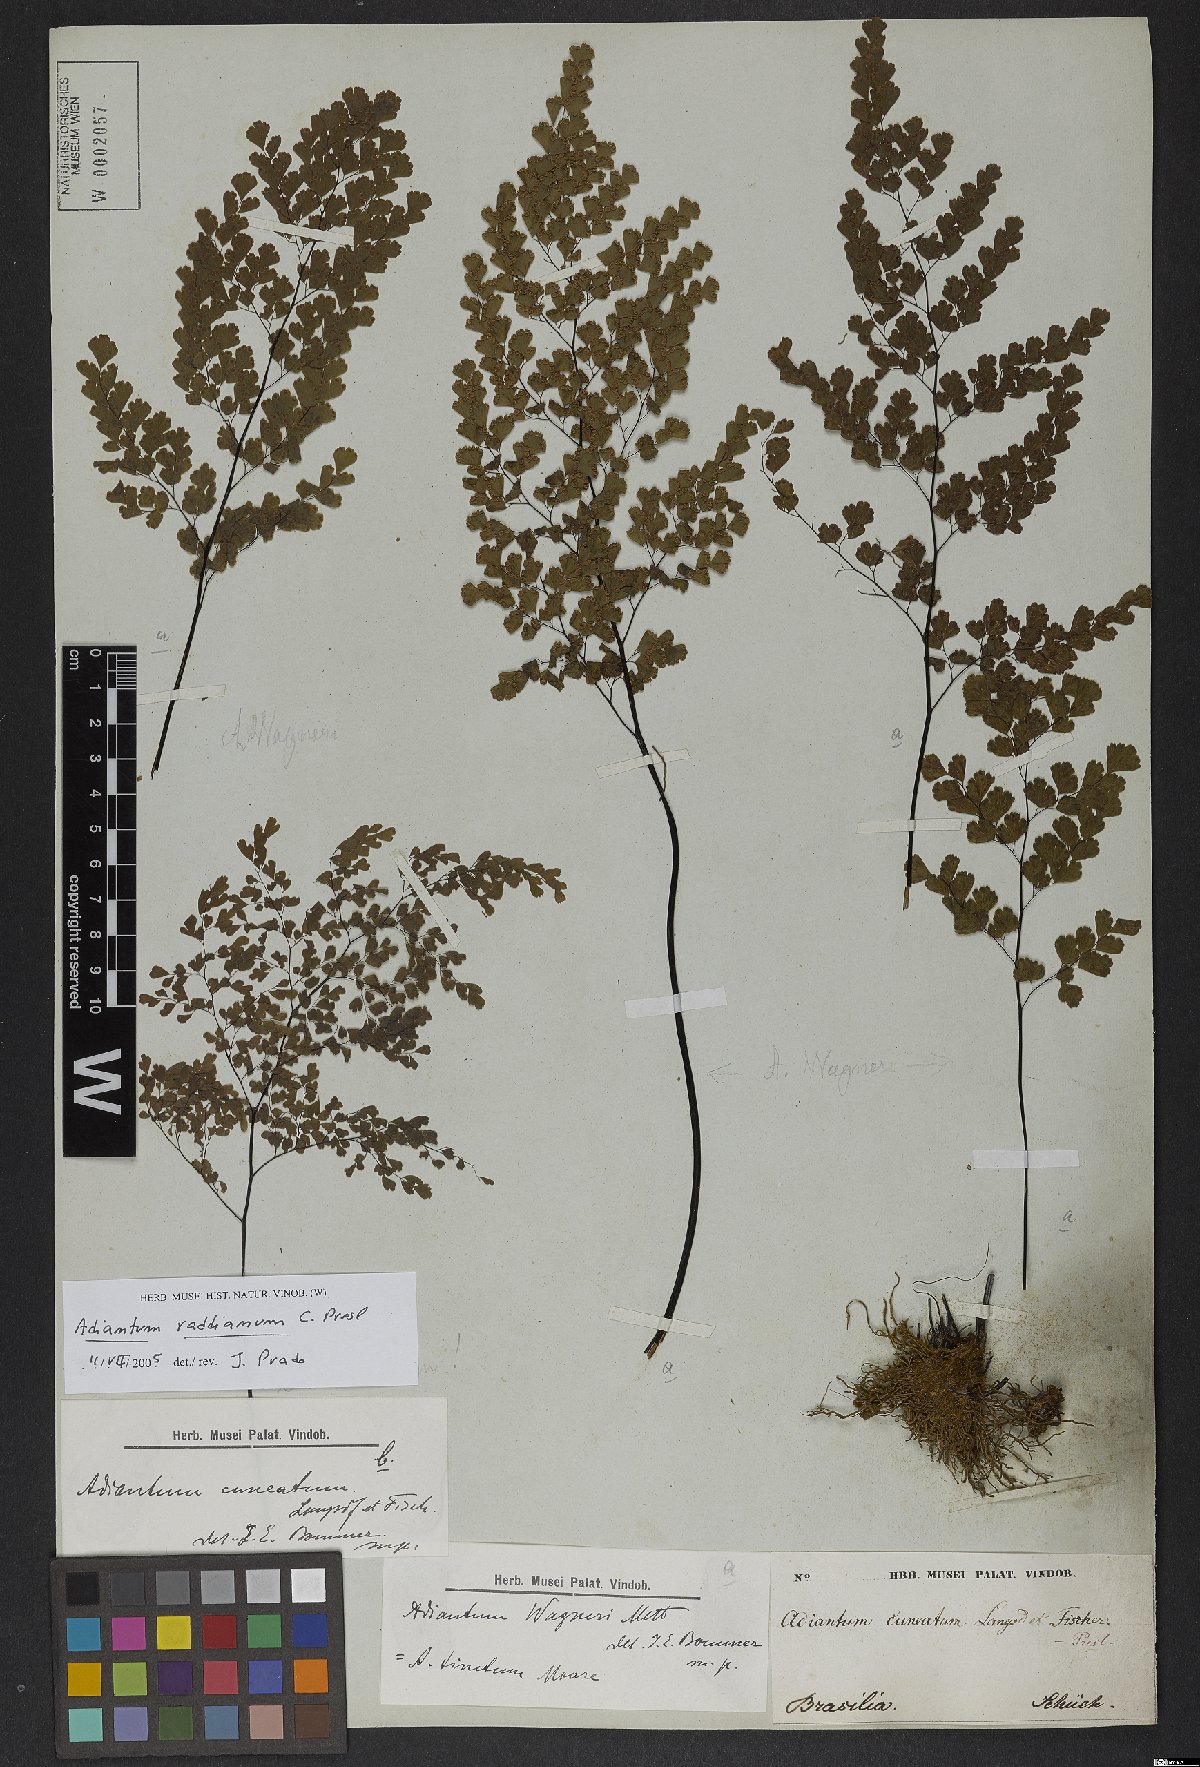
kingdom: Plantae
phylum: Tracheophyta
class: Polypodiopsida
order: Polypodiales
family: Pteridaceae
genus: Adiantum
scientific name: Adiantum raddianum
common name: Delta maidenhair fern
